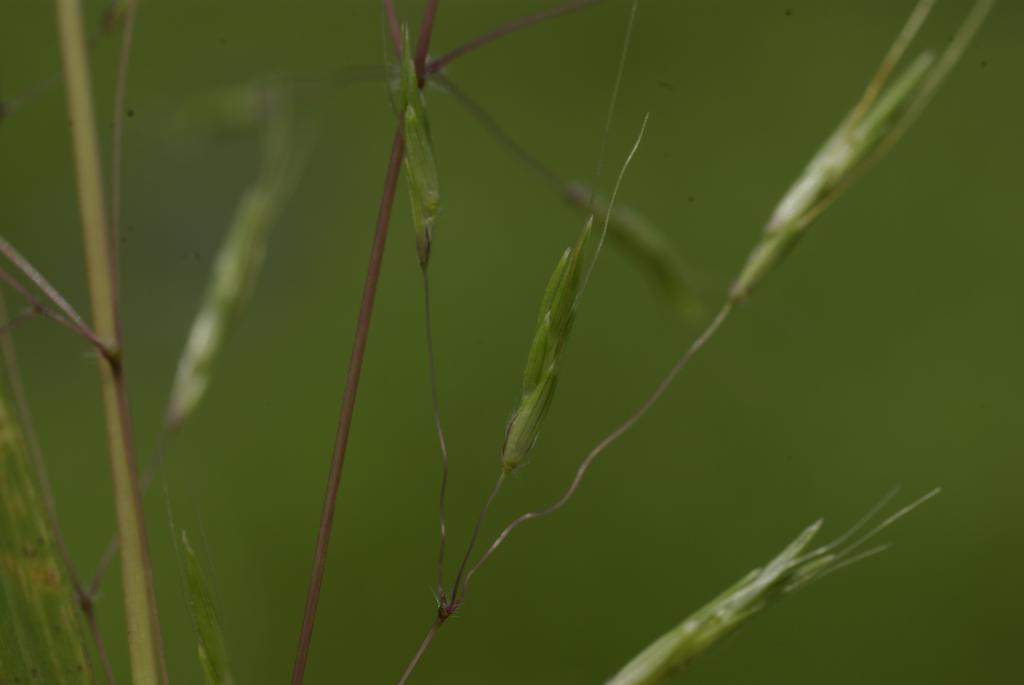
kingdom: Plantae
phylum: Tracheophyta
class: Liliopsida
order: Poales
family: Poaceae
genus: Capillipedium
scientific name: Capillipedium parviflorum
